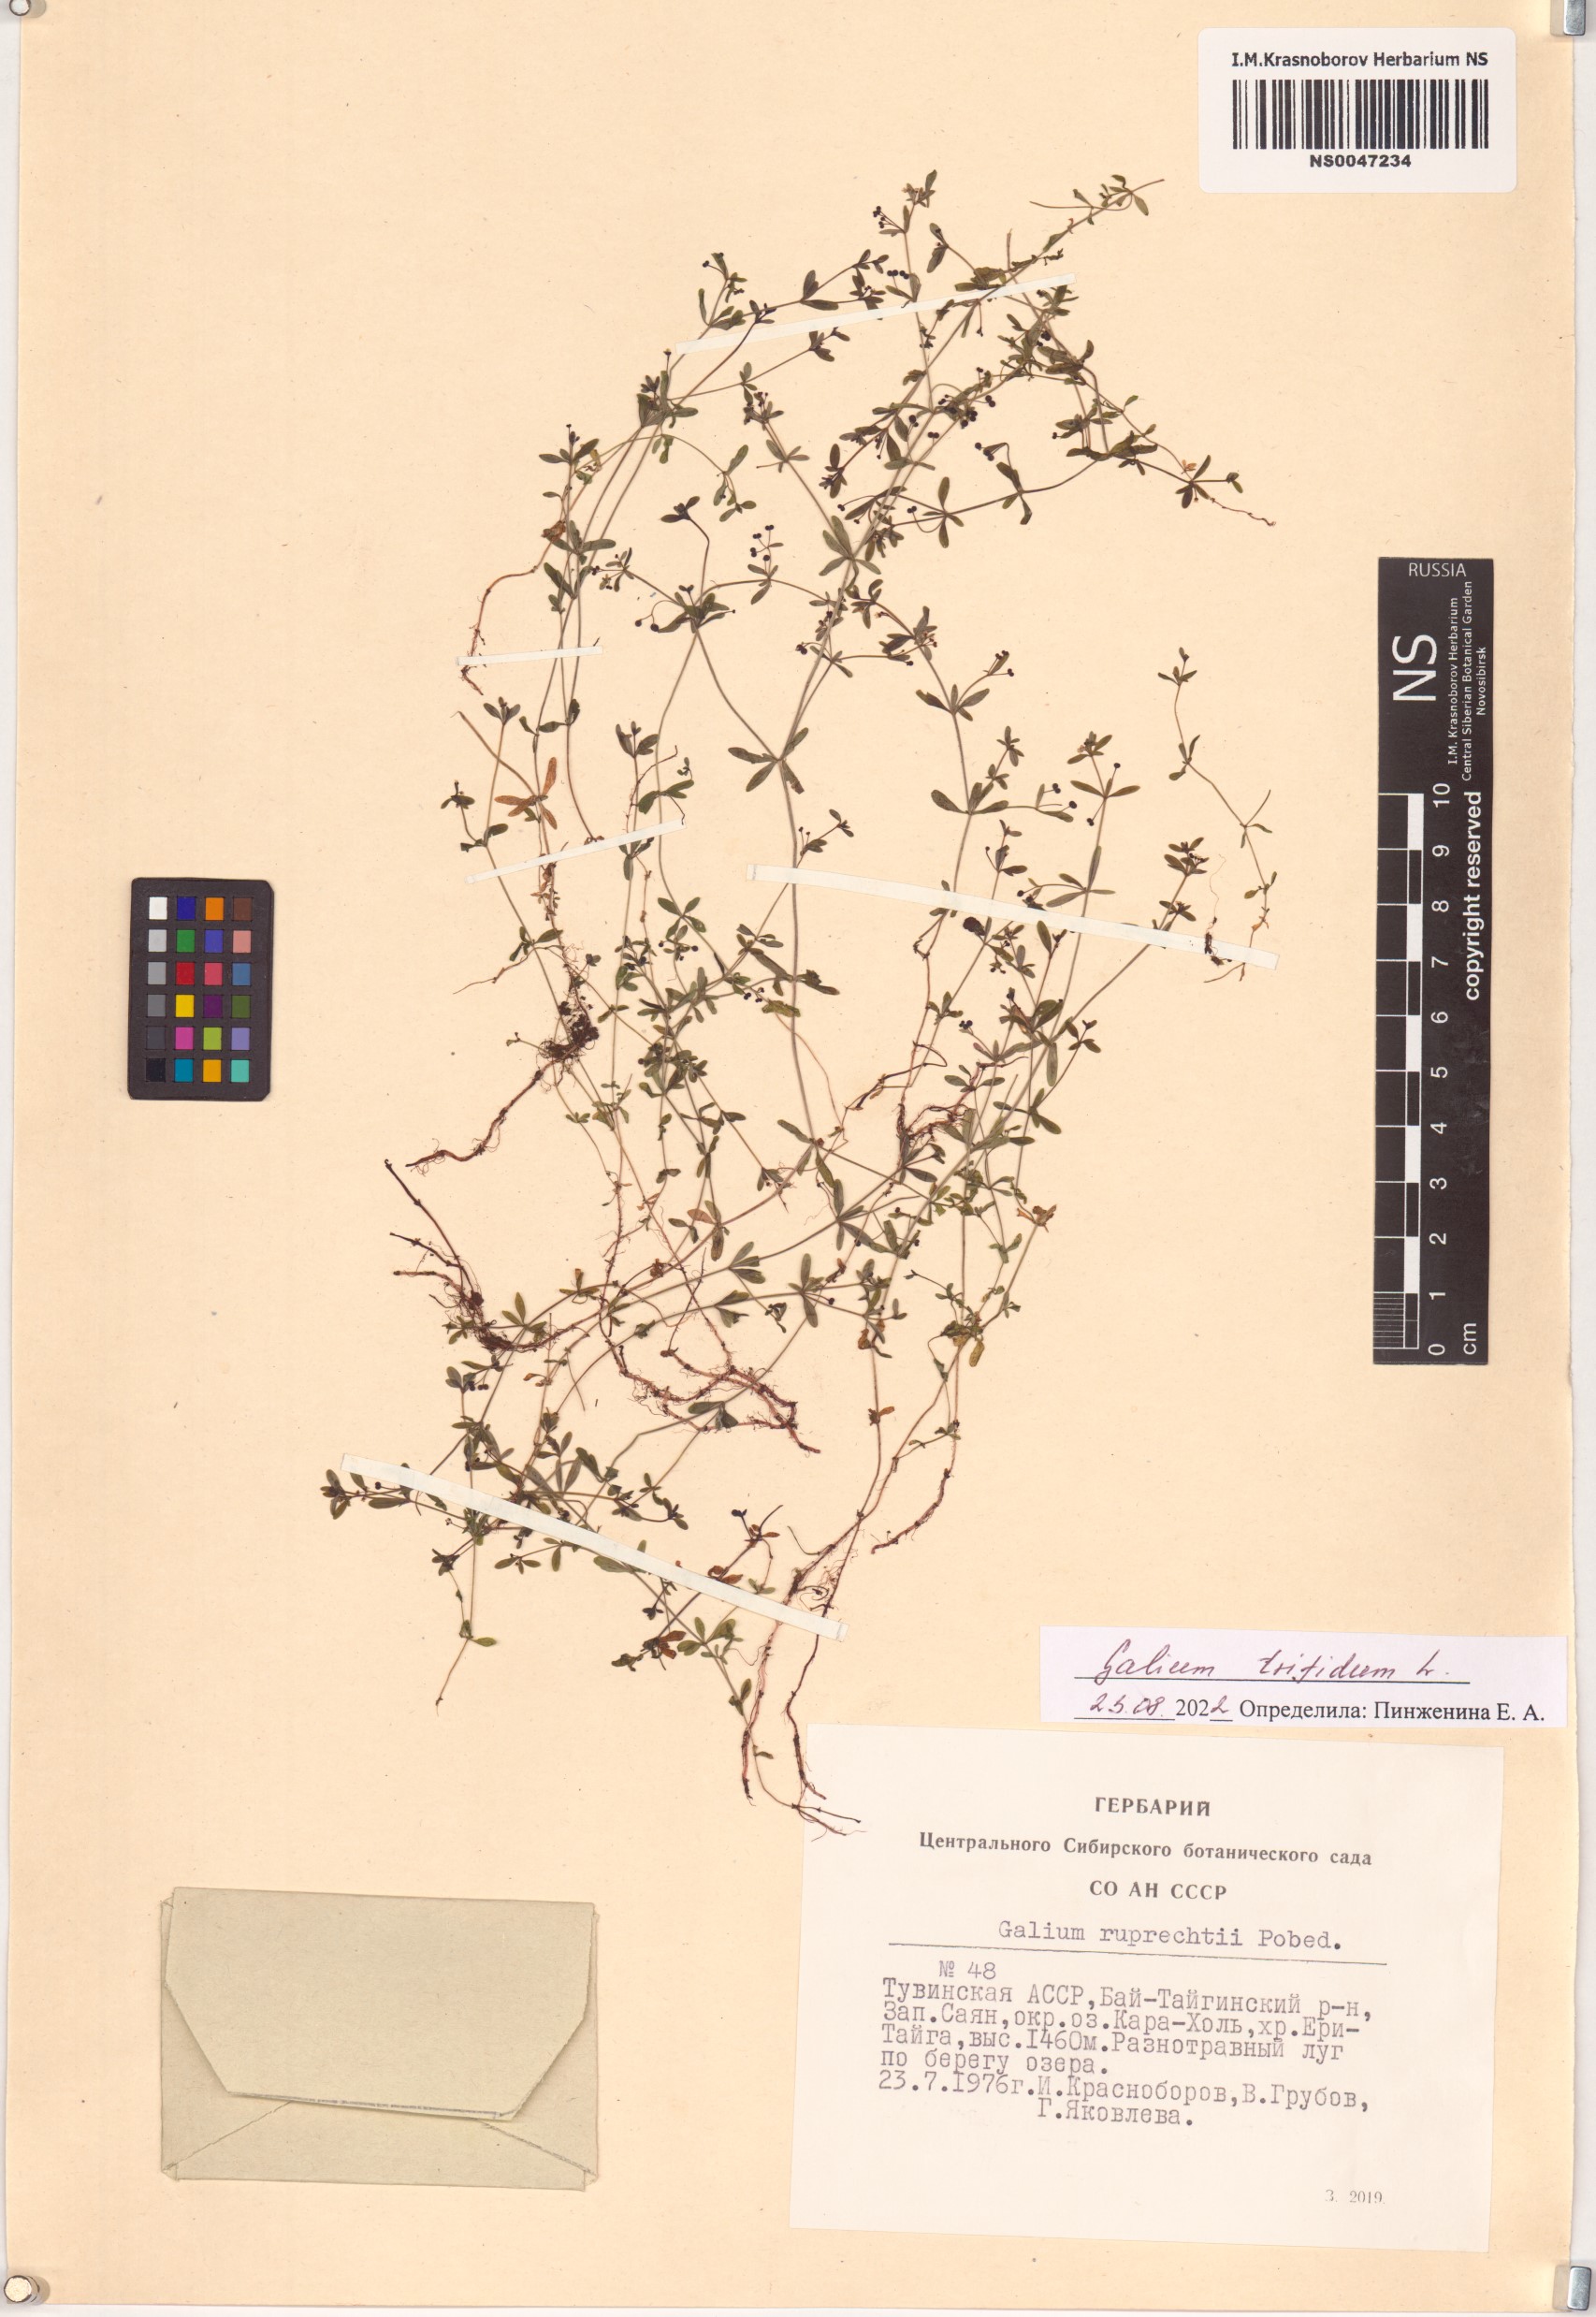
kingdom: Plantae
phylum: Tracheophyta
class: Magnoliopsida
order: Gentianales
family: Rubiaceae
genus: Galium
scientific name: Galium trifidum
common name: Small bedstraw
